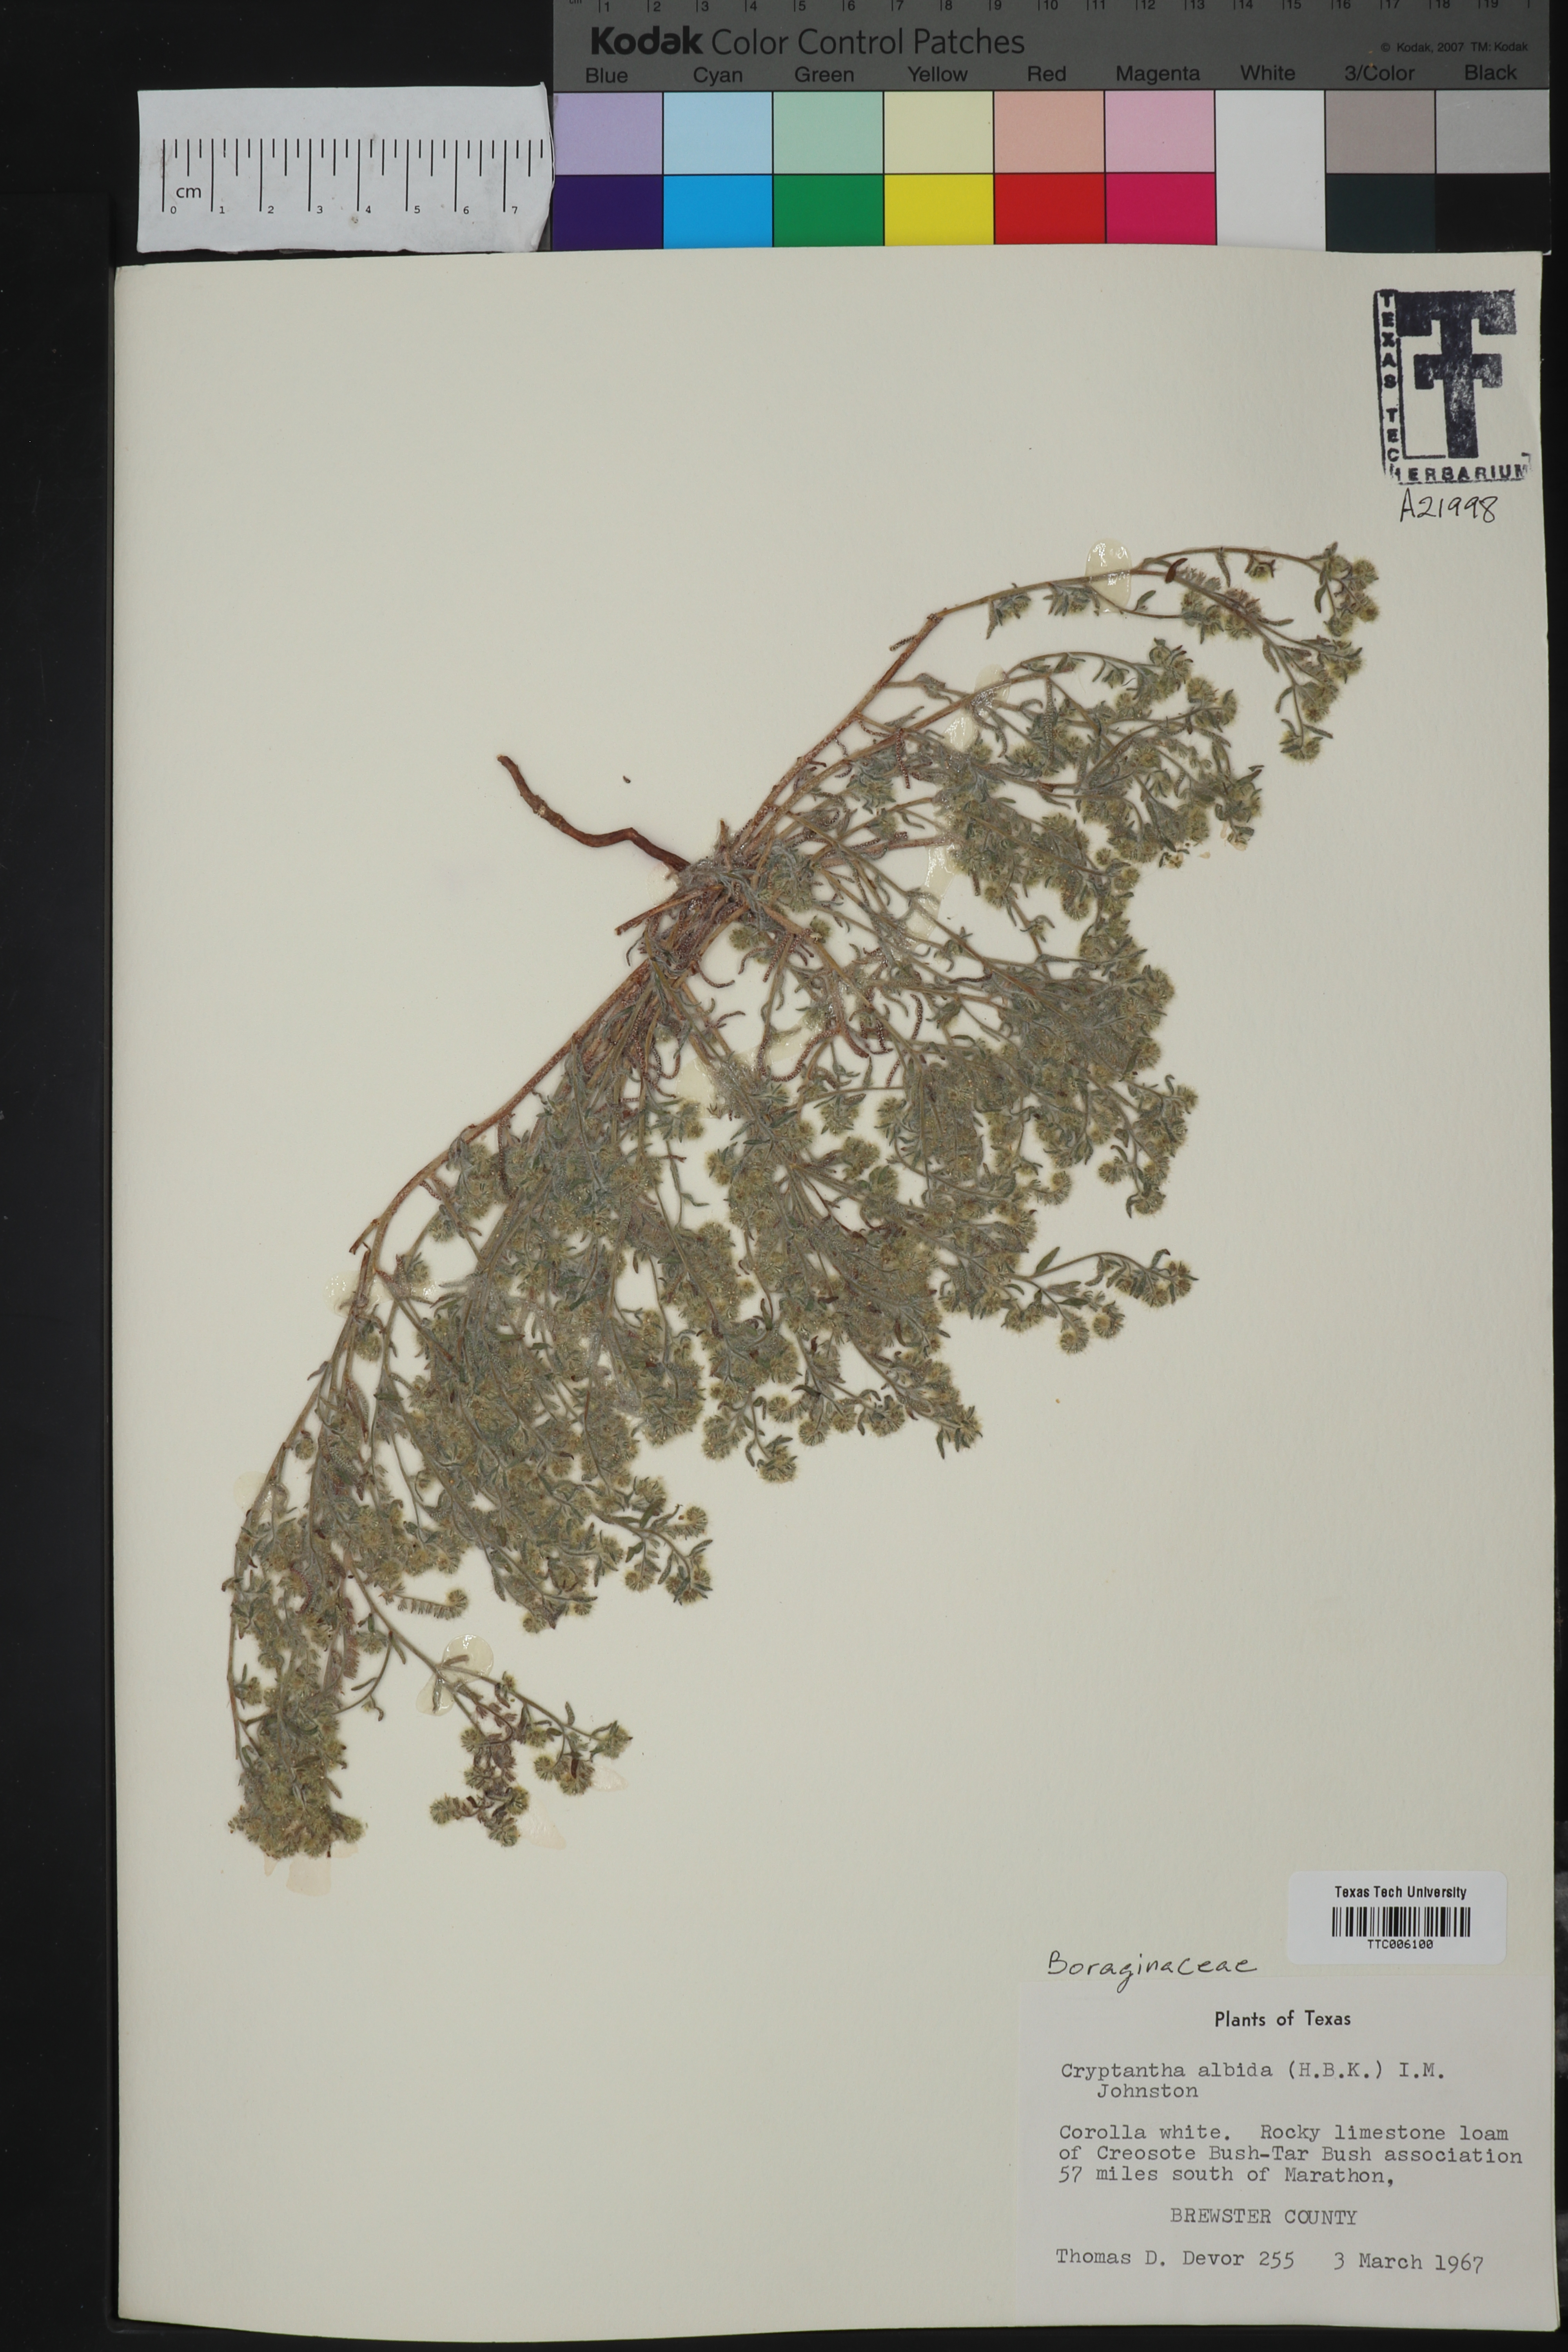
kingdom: Plantae
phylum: Tracheophyta
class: Magnoliopsida
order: Boraginales
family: Boraginaceae
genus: Johnstonella
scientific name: Johnstonella albida
